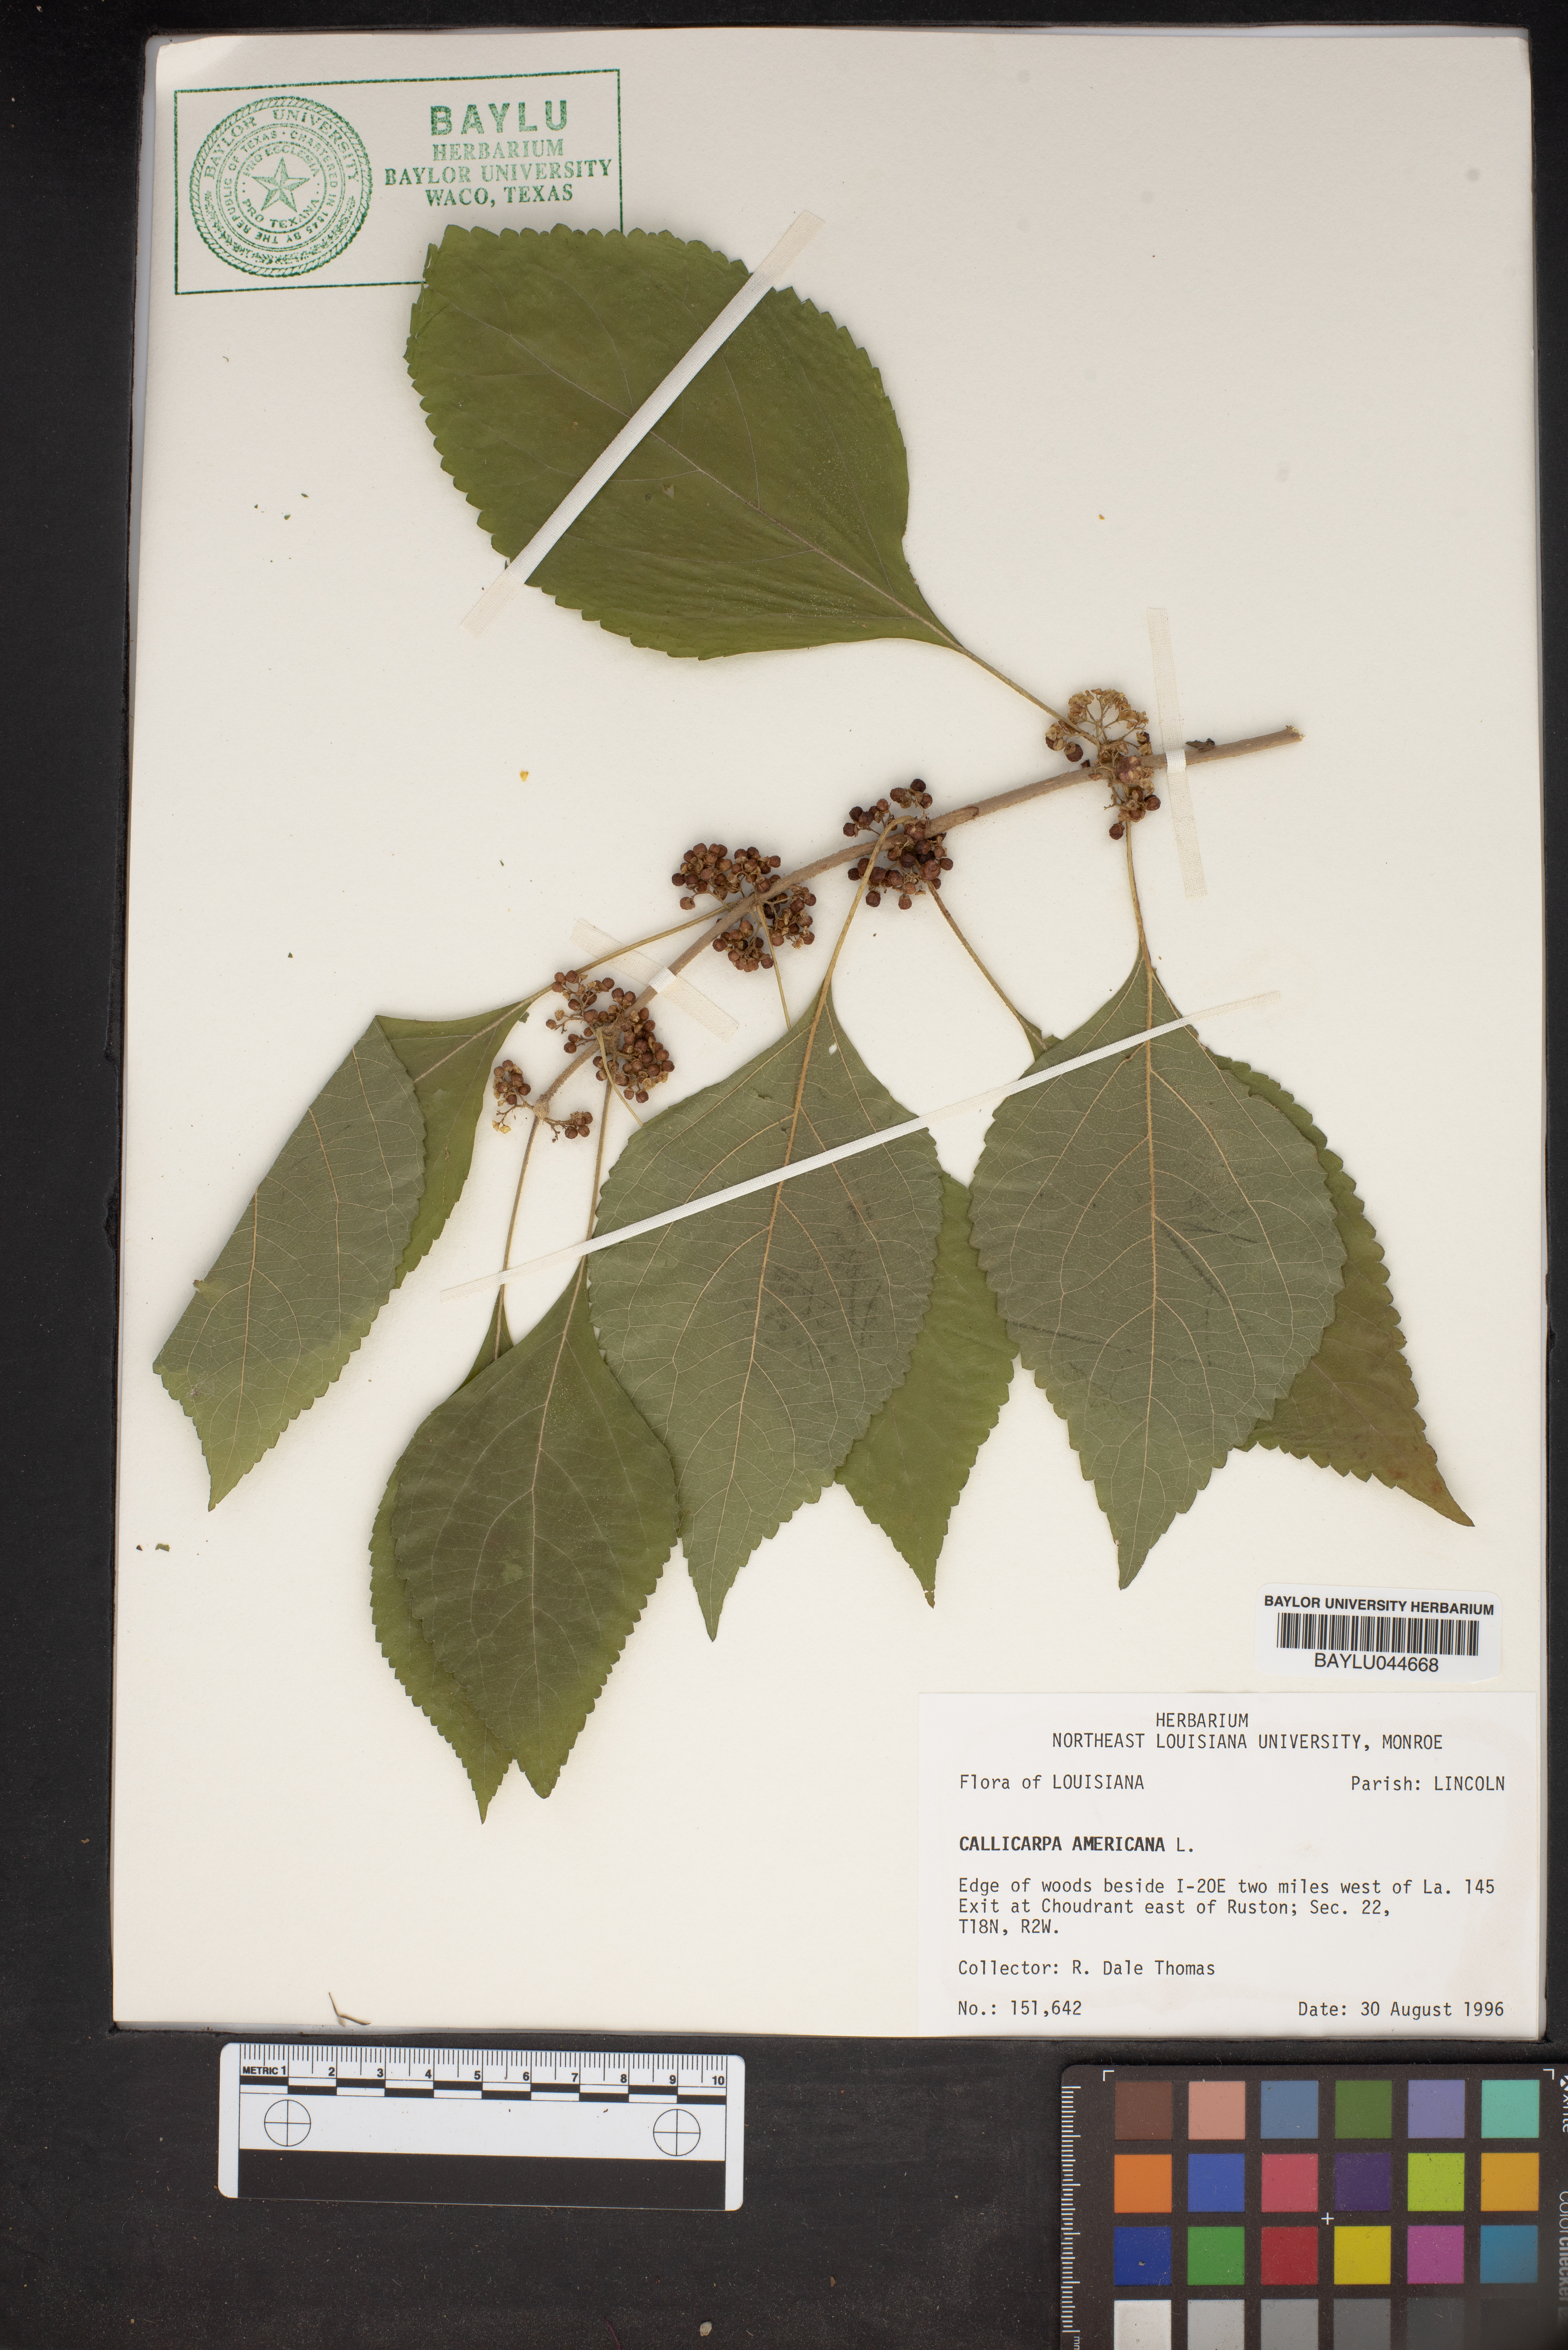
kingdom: Plantae
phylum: Tracheophyta
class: Magnoliopsida
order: Lamiales
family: Lamiaceae
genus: Callicarpa
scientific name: Callicarpa americana
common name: American beautyberry
